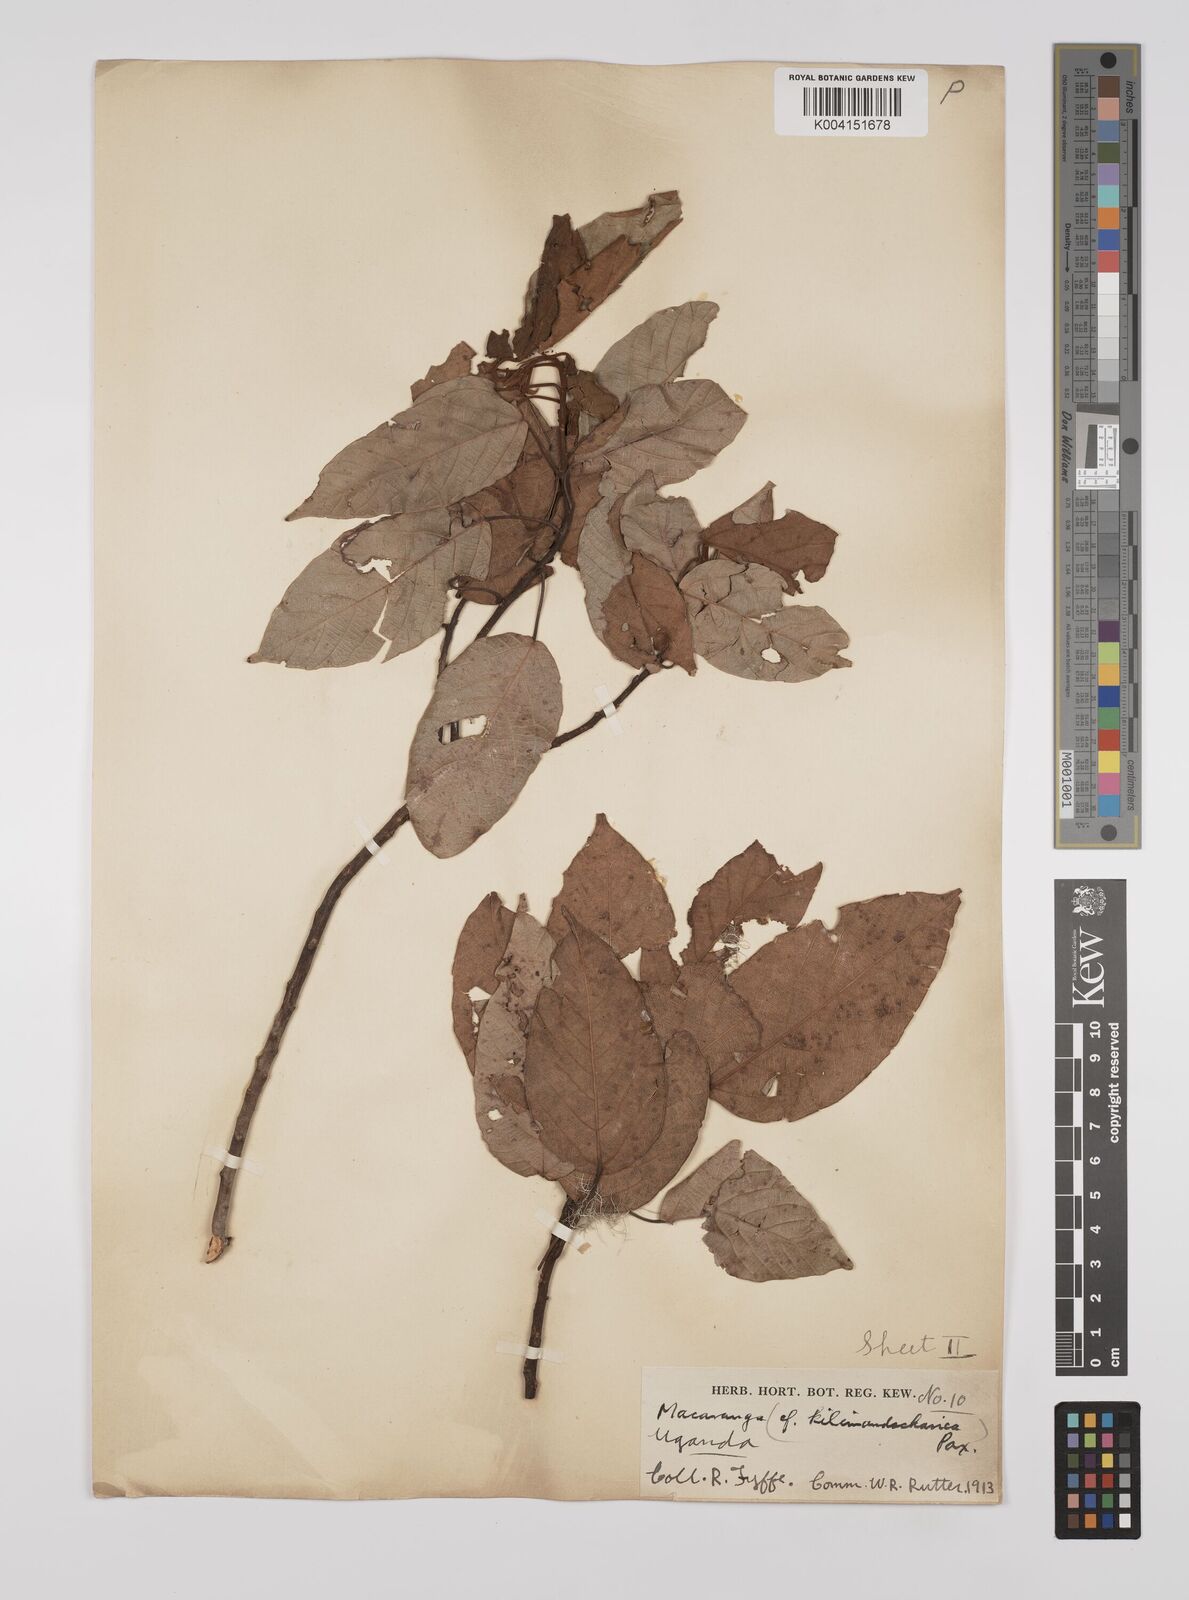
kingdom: Plantae
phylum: Tracheophyta
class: Magnoliopsida
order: Malpighiales
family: Euphorbiaceae
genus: Macaranga
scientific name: Macaranga kilimandscharica
